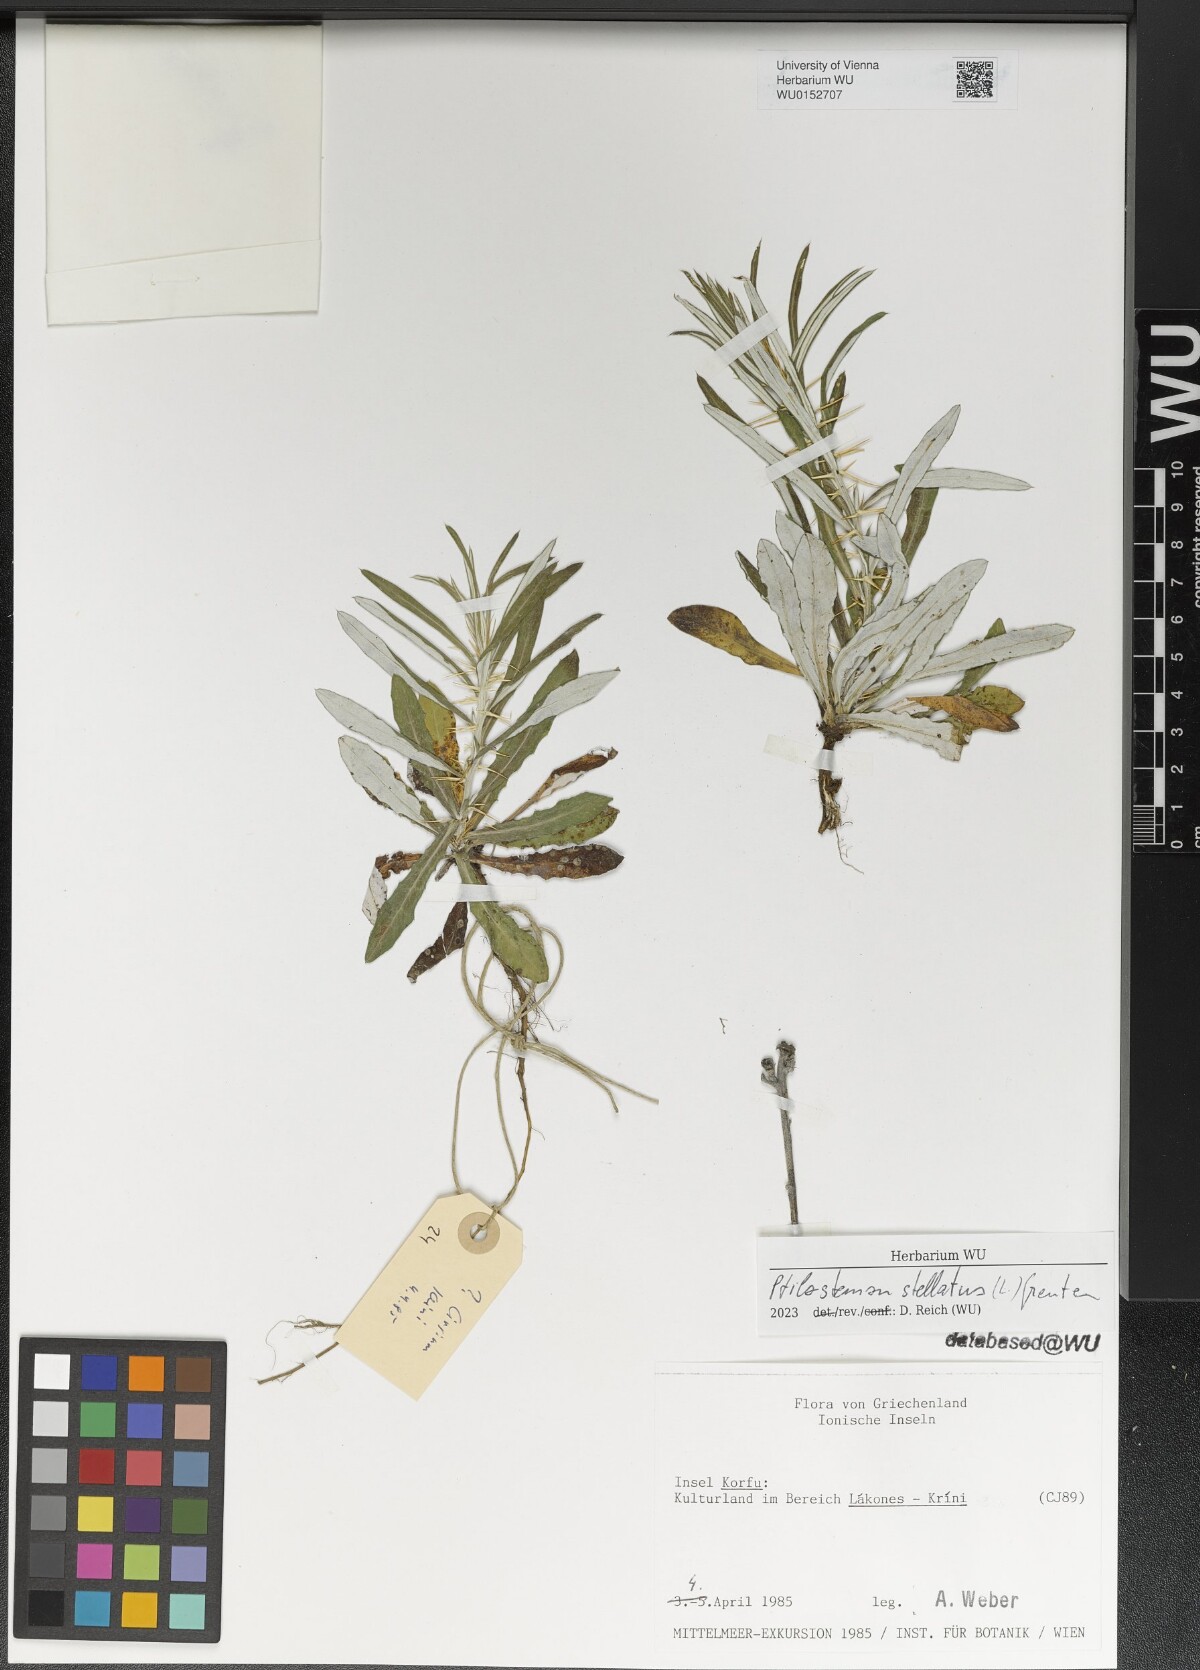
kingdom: Plantae
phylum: Tracheophyta
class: Magnoliopsida
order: Asterales
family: Asteraceae
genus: Ptilostemon
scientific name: Ptilostemon stellatus
